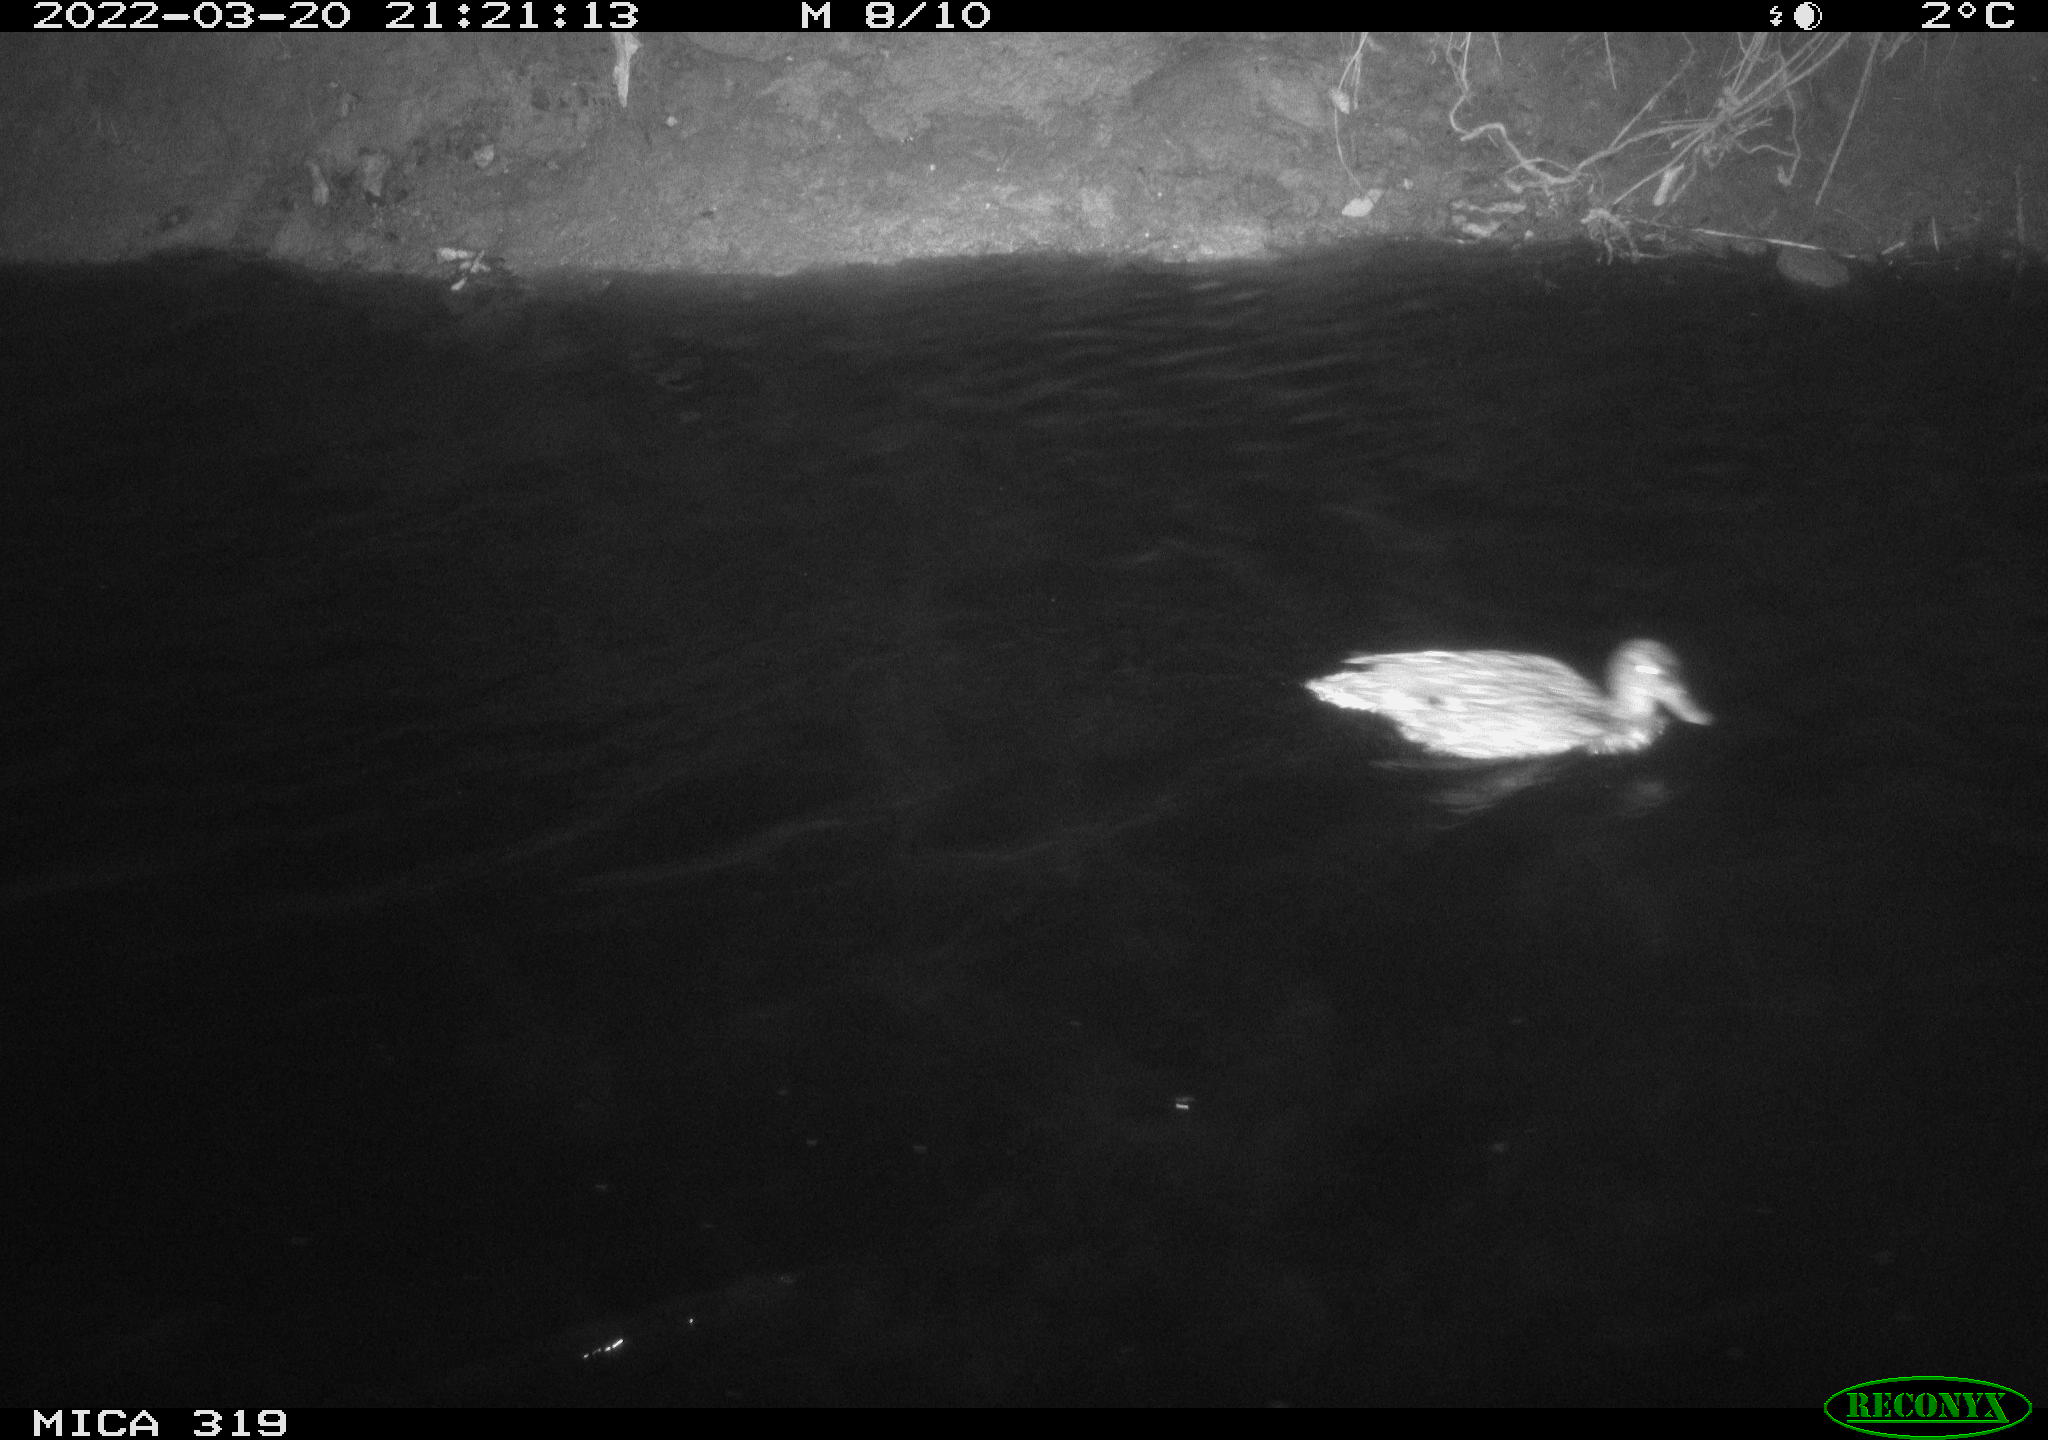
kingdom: Animalia
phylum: Chordata
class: Aves
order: Anseriformes
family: Anatidae
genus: Anas
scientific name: Anas platyrhynchos
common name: Mallard
